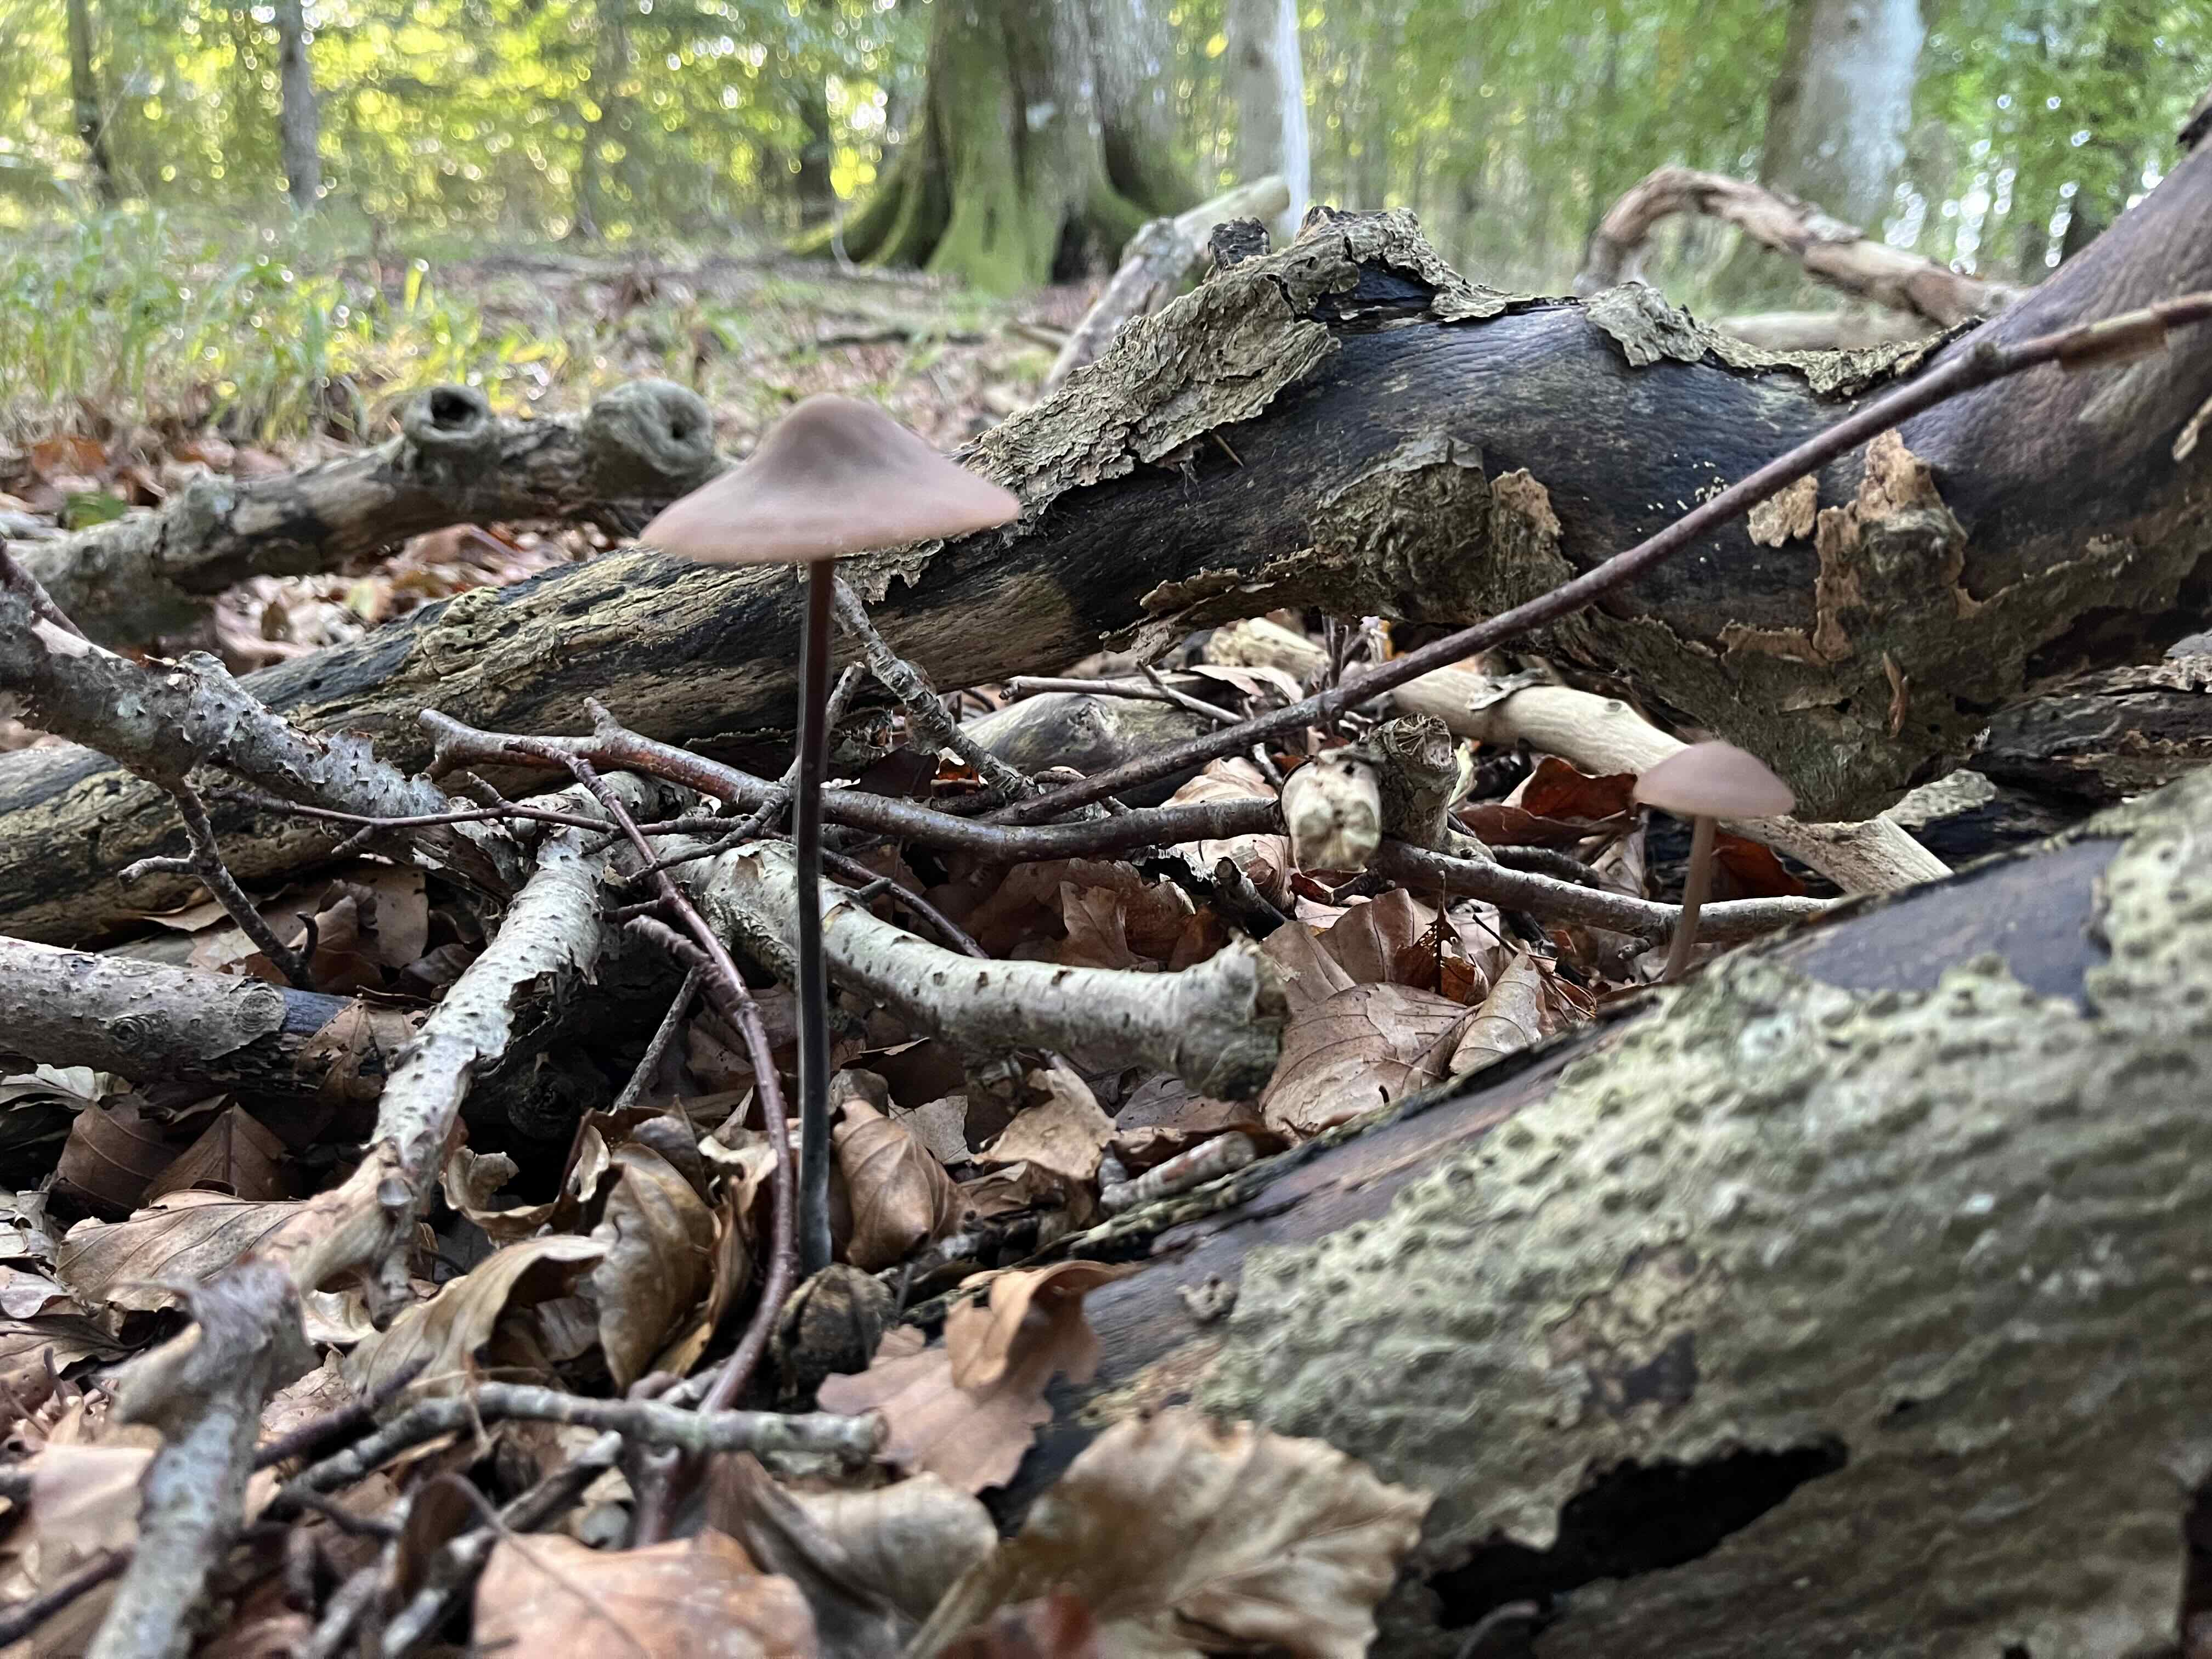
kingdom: Fungi
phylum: Basidiomycota
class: Agaricomycetes
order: Agaricales
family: Omphalotaceae
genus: Mycetinis
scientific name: Mycetinis alliaceus
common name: stor løghat
